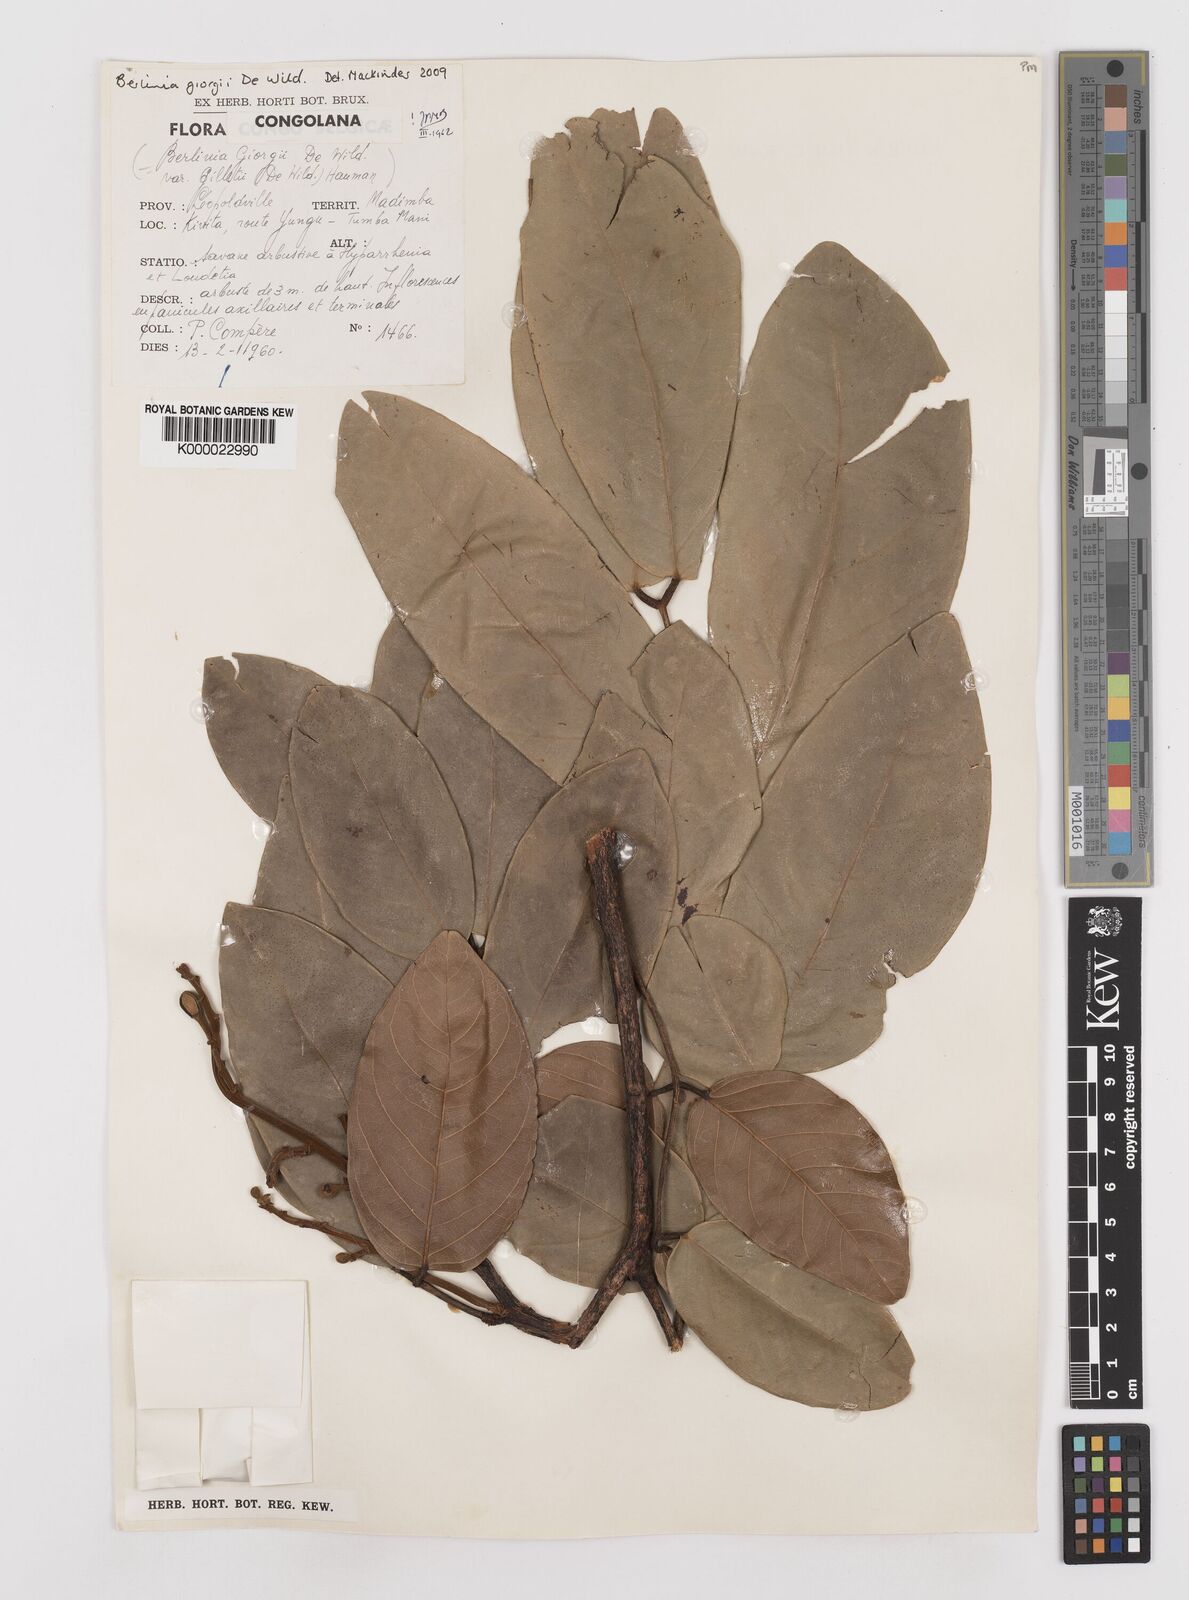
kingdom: Plantae
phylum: Tracheophyta
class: Magnoliopsida
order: Fabales
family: Fabaceae
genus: Berlinia
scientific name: Berlinia giorgii
